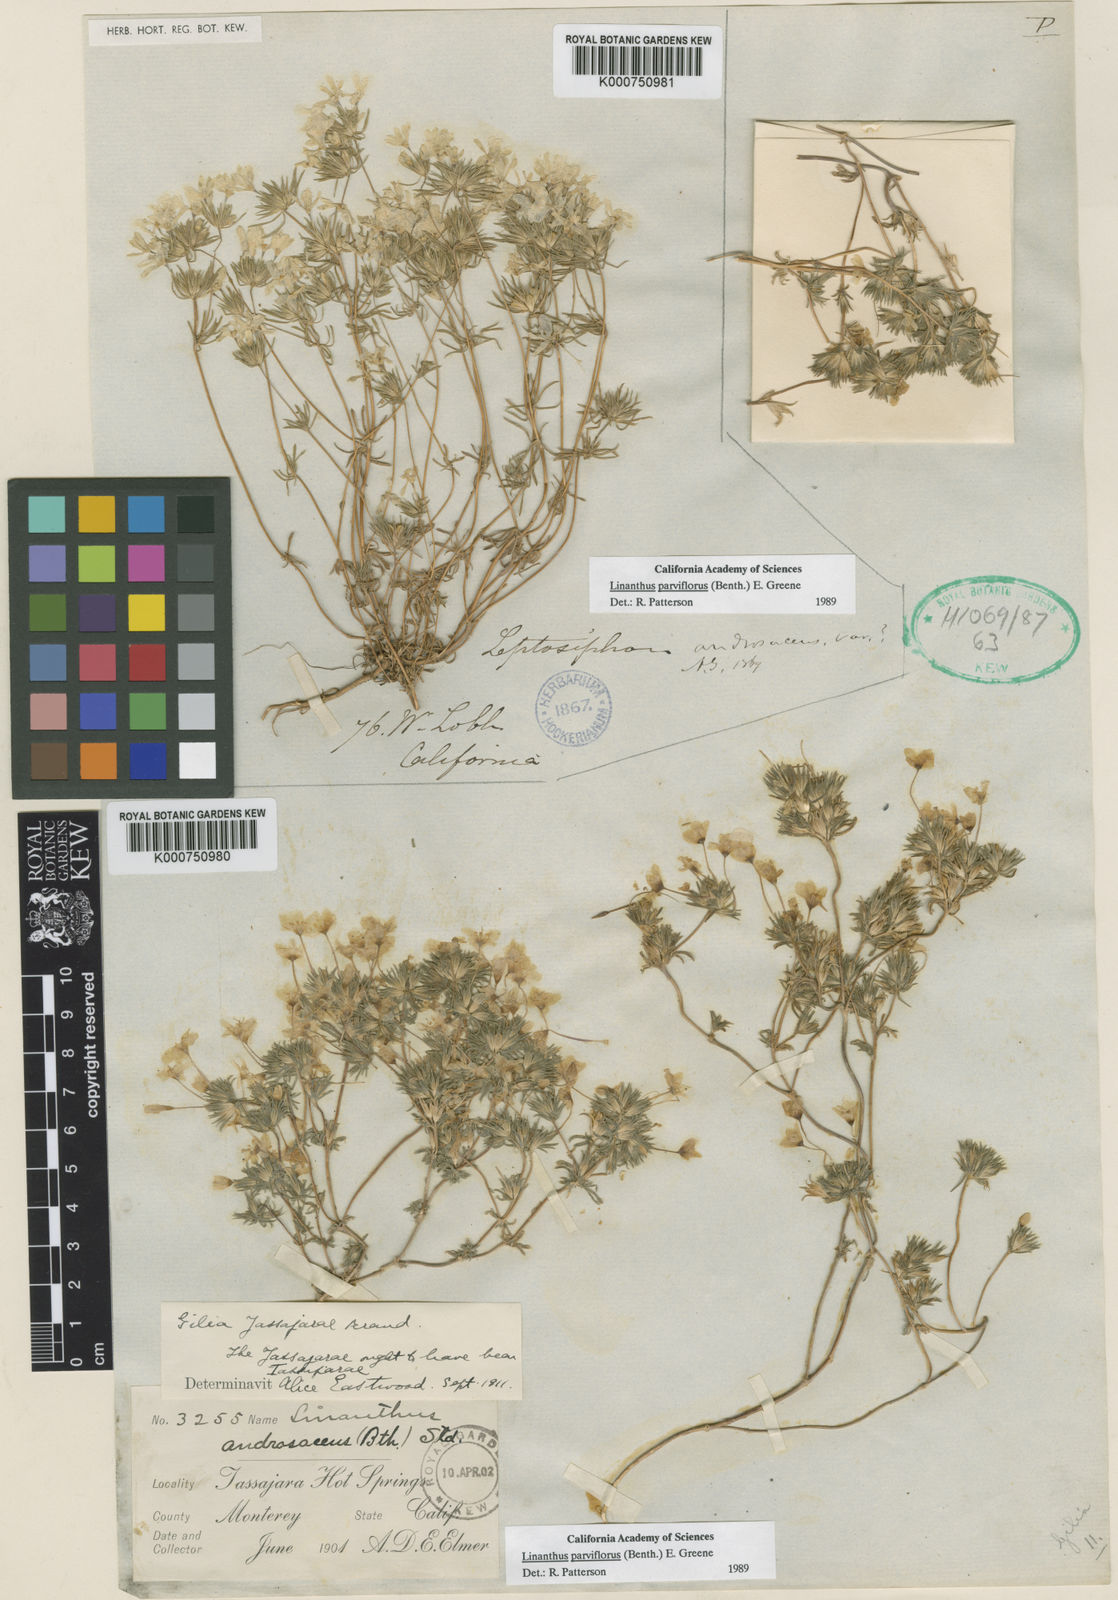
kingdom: Plantae
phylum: Tracheophyta
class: Magnoliopsida
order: Ericales
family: Polemoniaceae
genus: Leptosiphon
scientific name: Leptosiphon parviflorus
